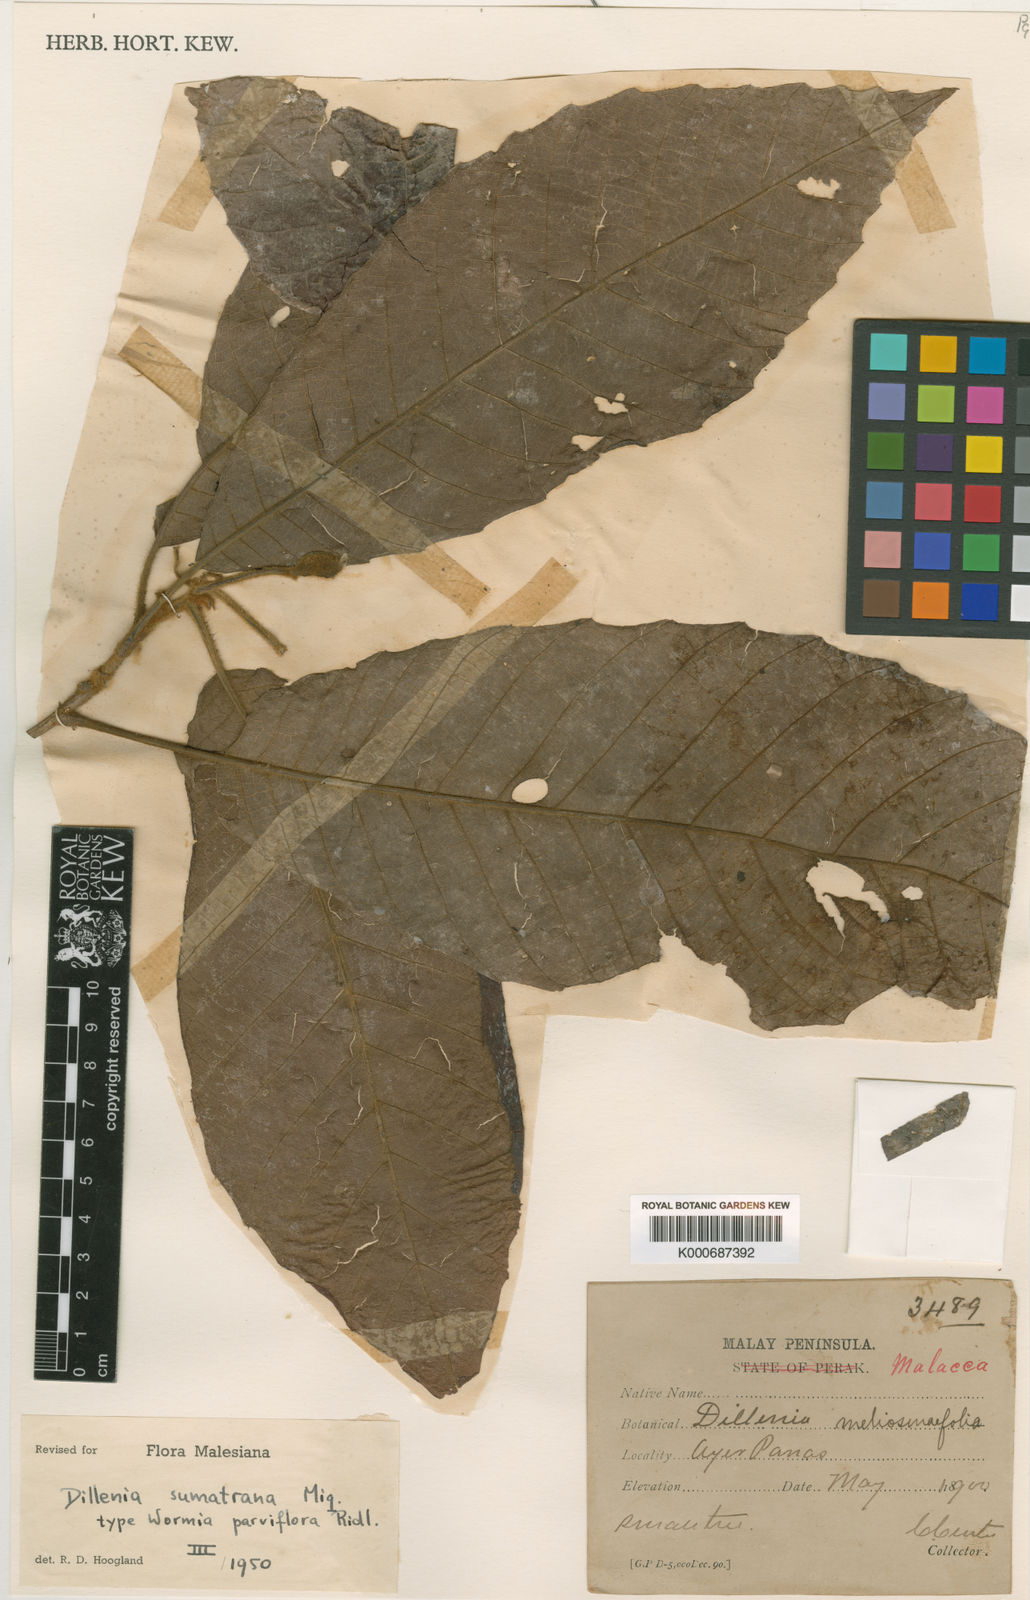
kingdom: Plantae
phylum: Tracheophyta
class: Magnoliopsida
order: Dilleniales
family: Dilleniaceae
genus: Dillenia
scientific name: Dillenia sumatrana
